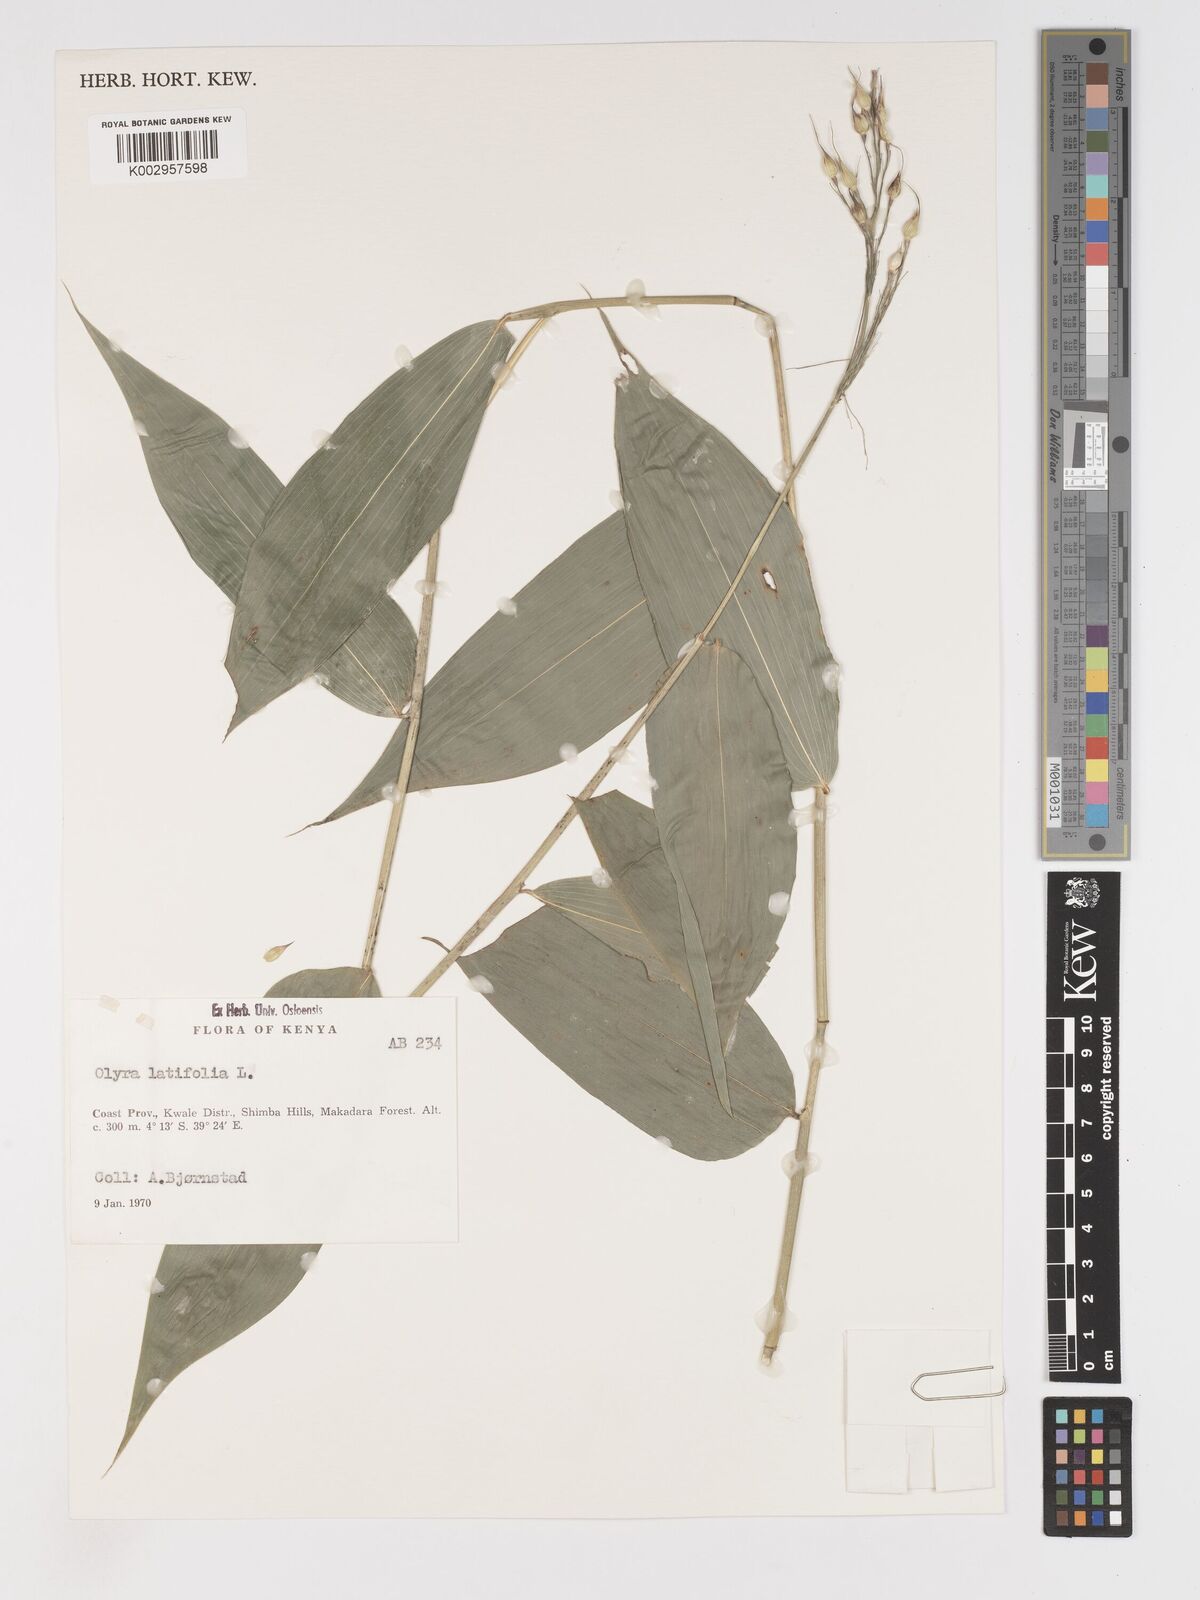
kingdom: Plantae
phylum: Tracheophyta
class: Liliopsida
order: Poales
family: Poaceae
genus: Olyra
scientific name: Olyra latifolia
